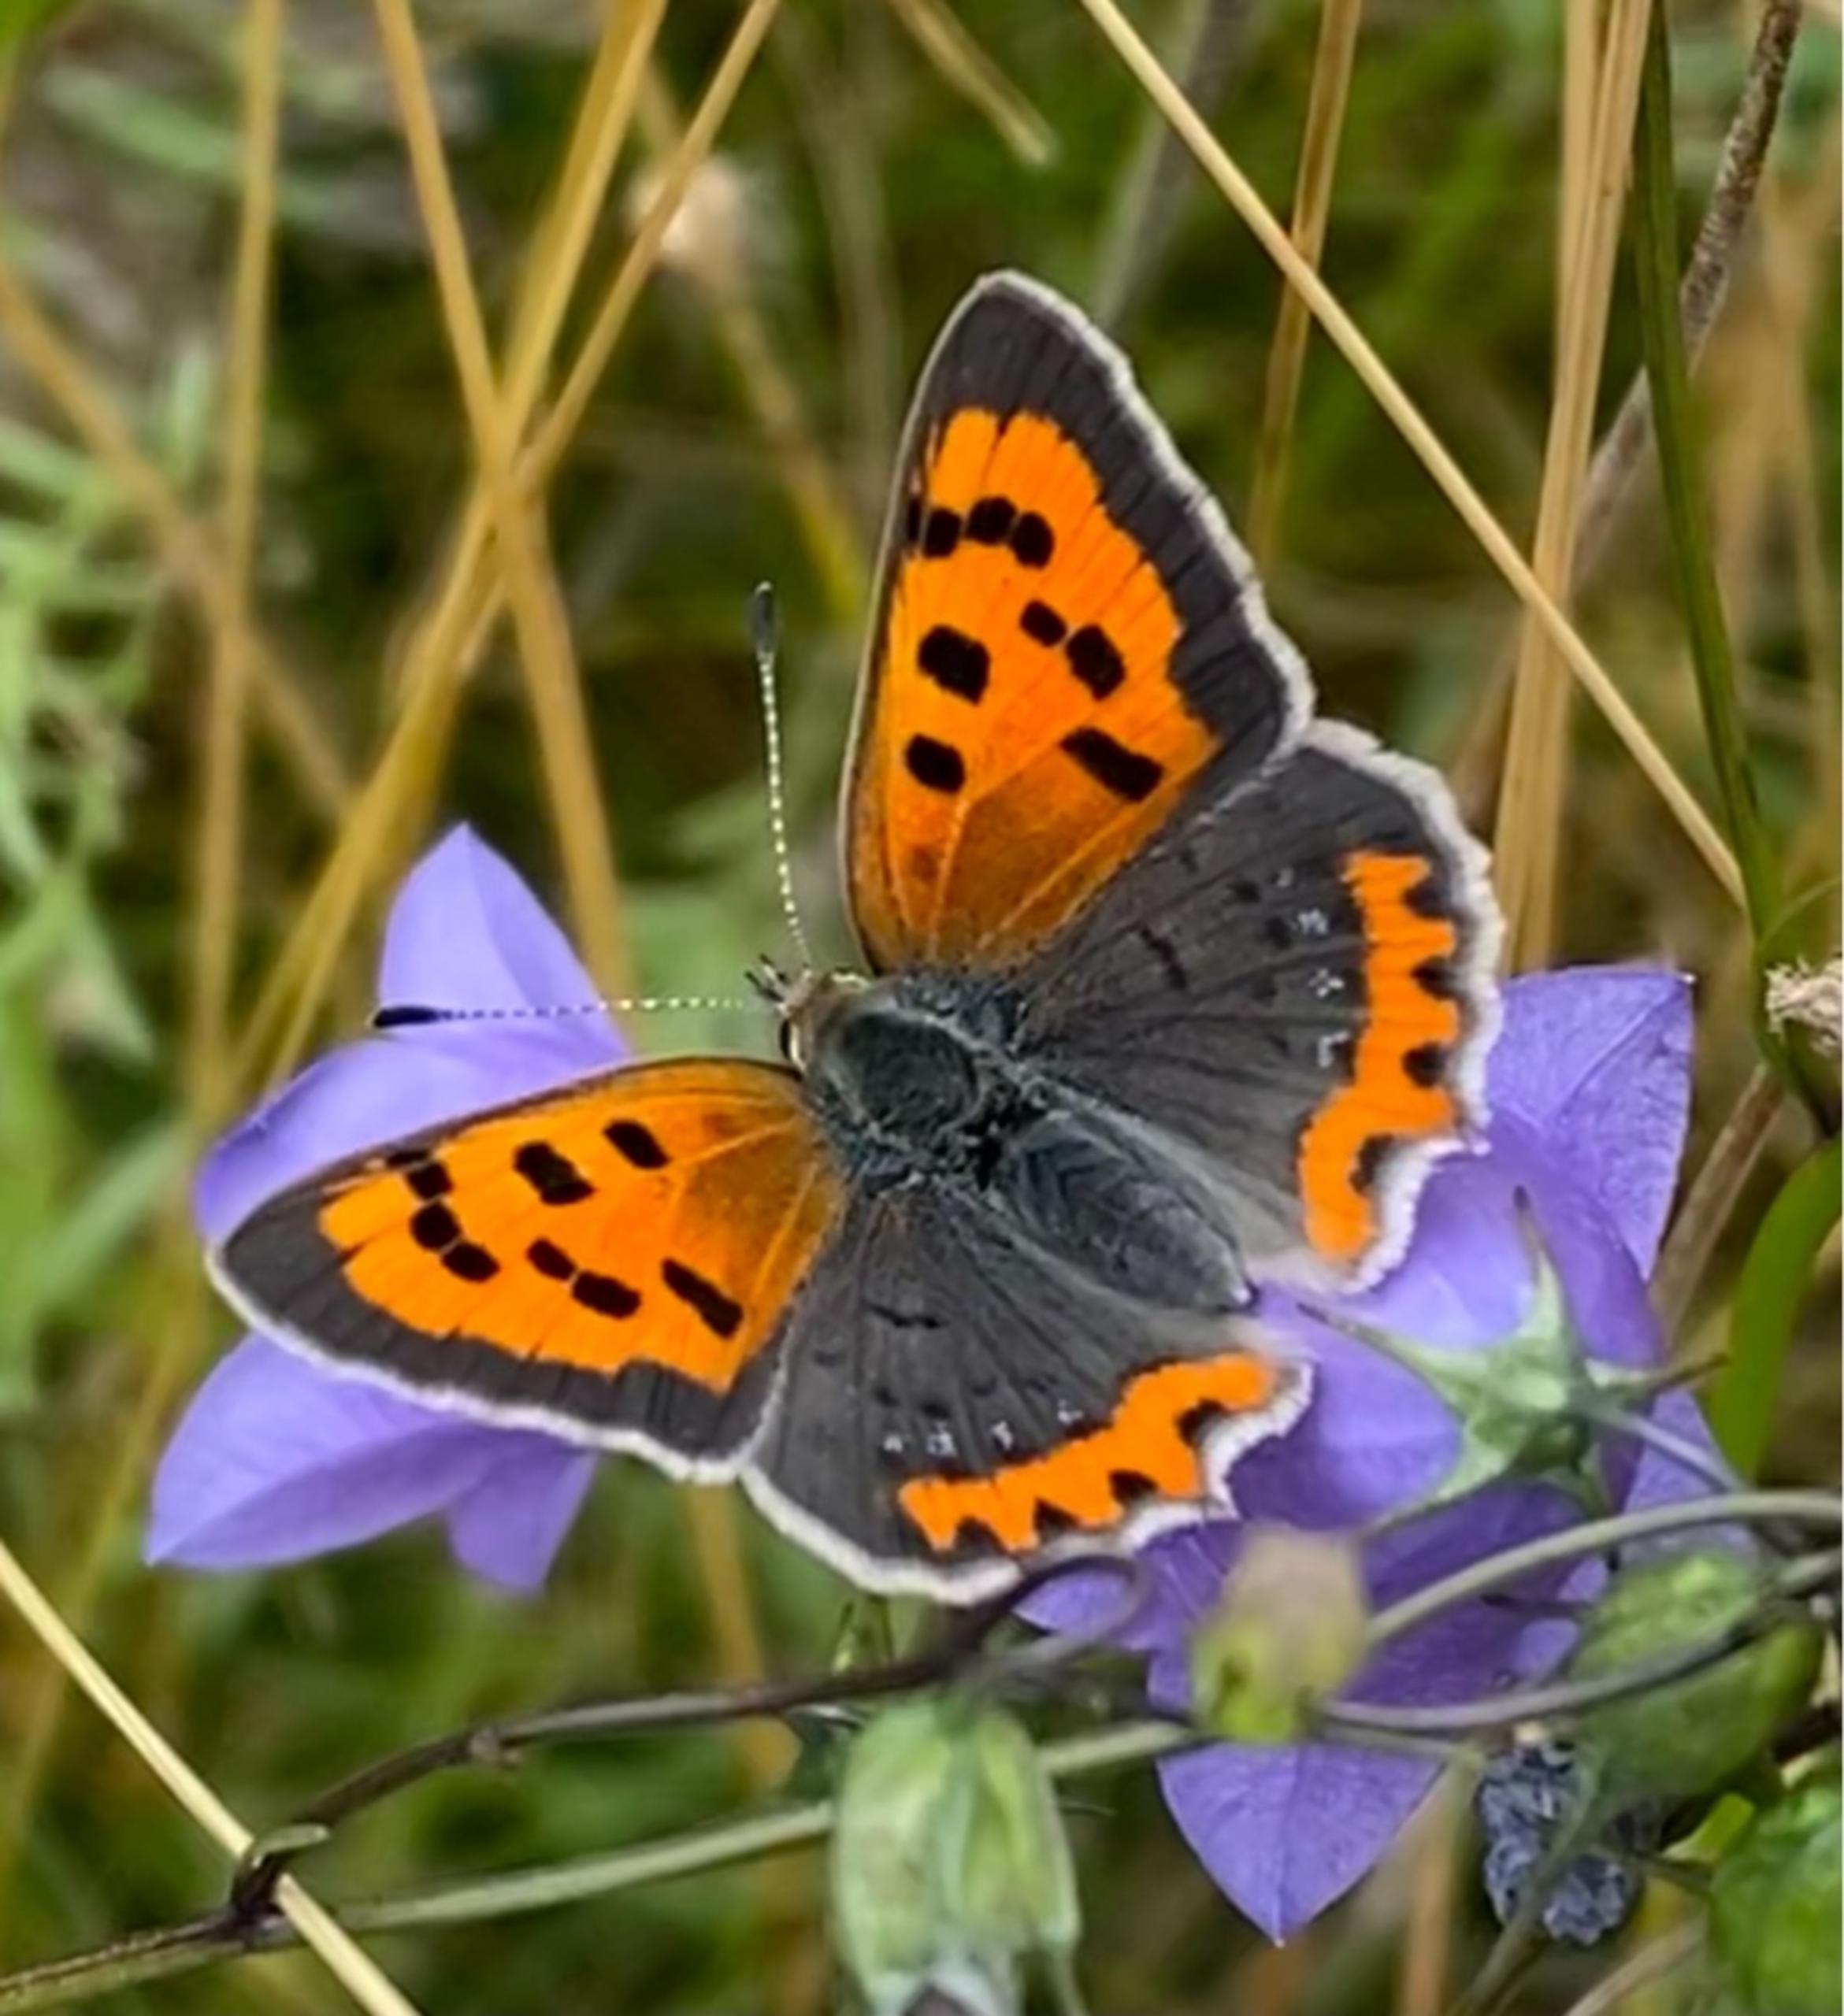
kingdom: Animalia
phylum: Arthropoda
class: Insecta
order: Lepidoptera
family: Lycaenidae
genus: Lycaena
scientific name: Lycaena phlaeas
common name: Lille ildfugl
